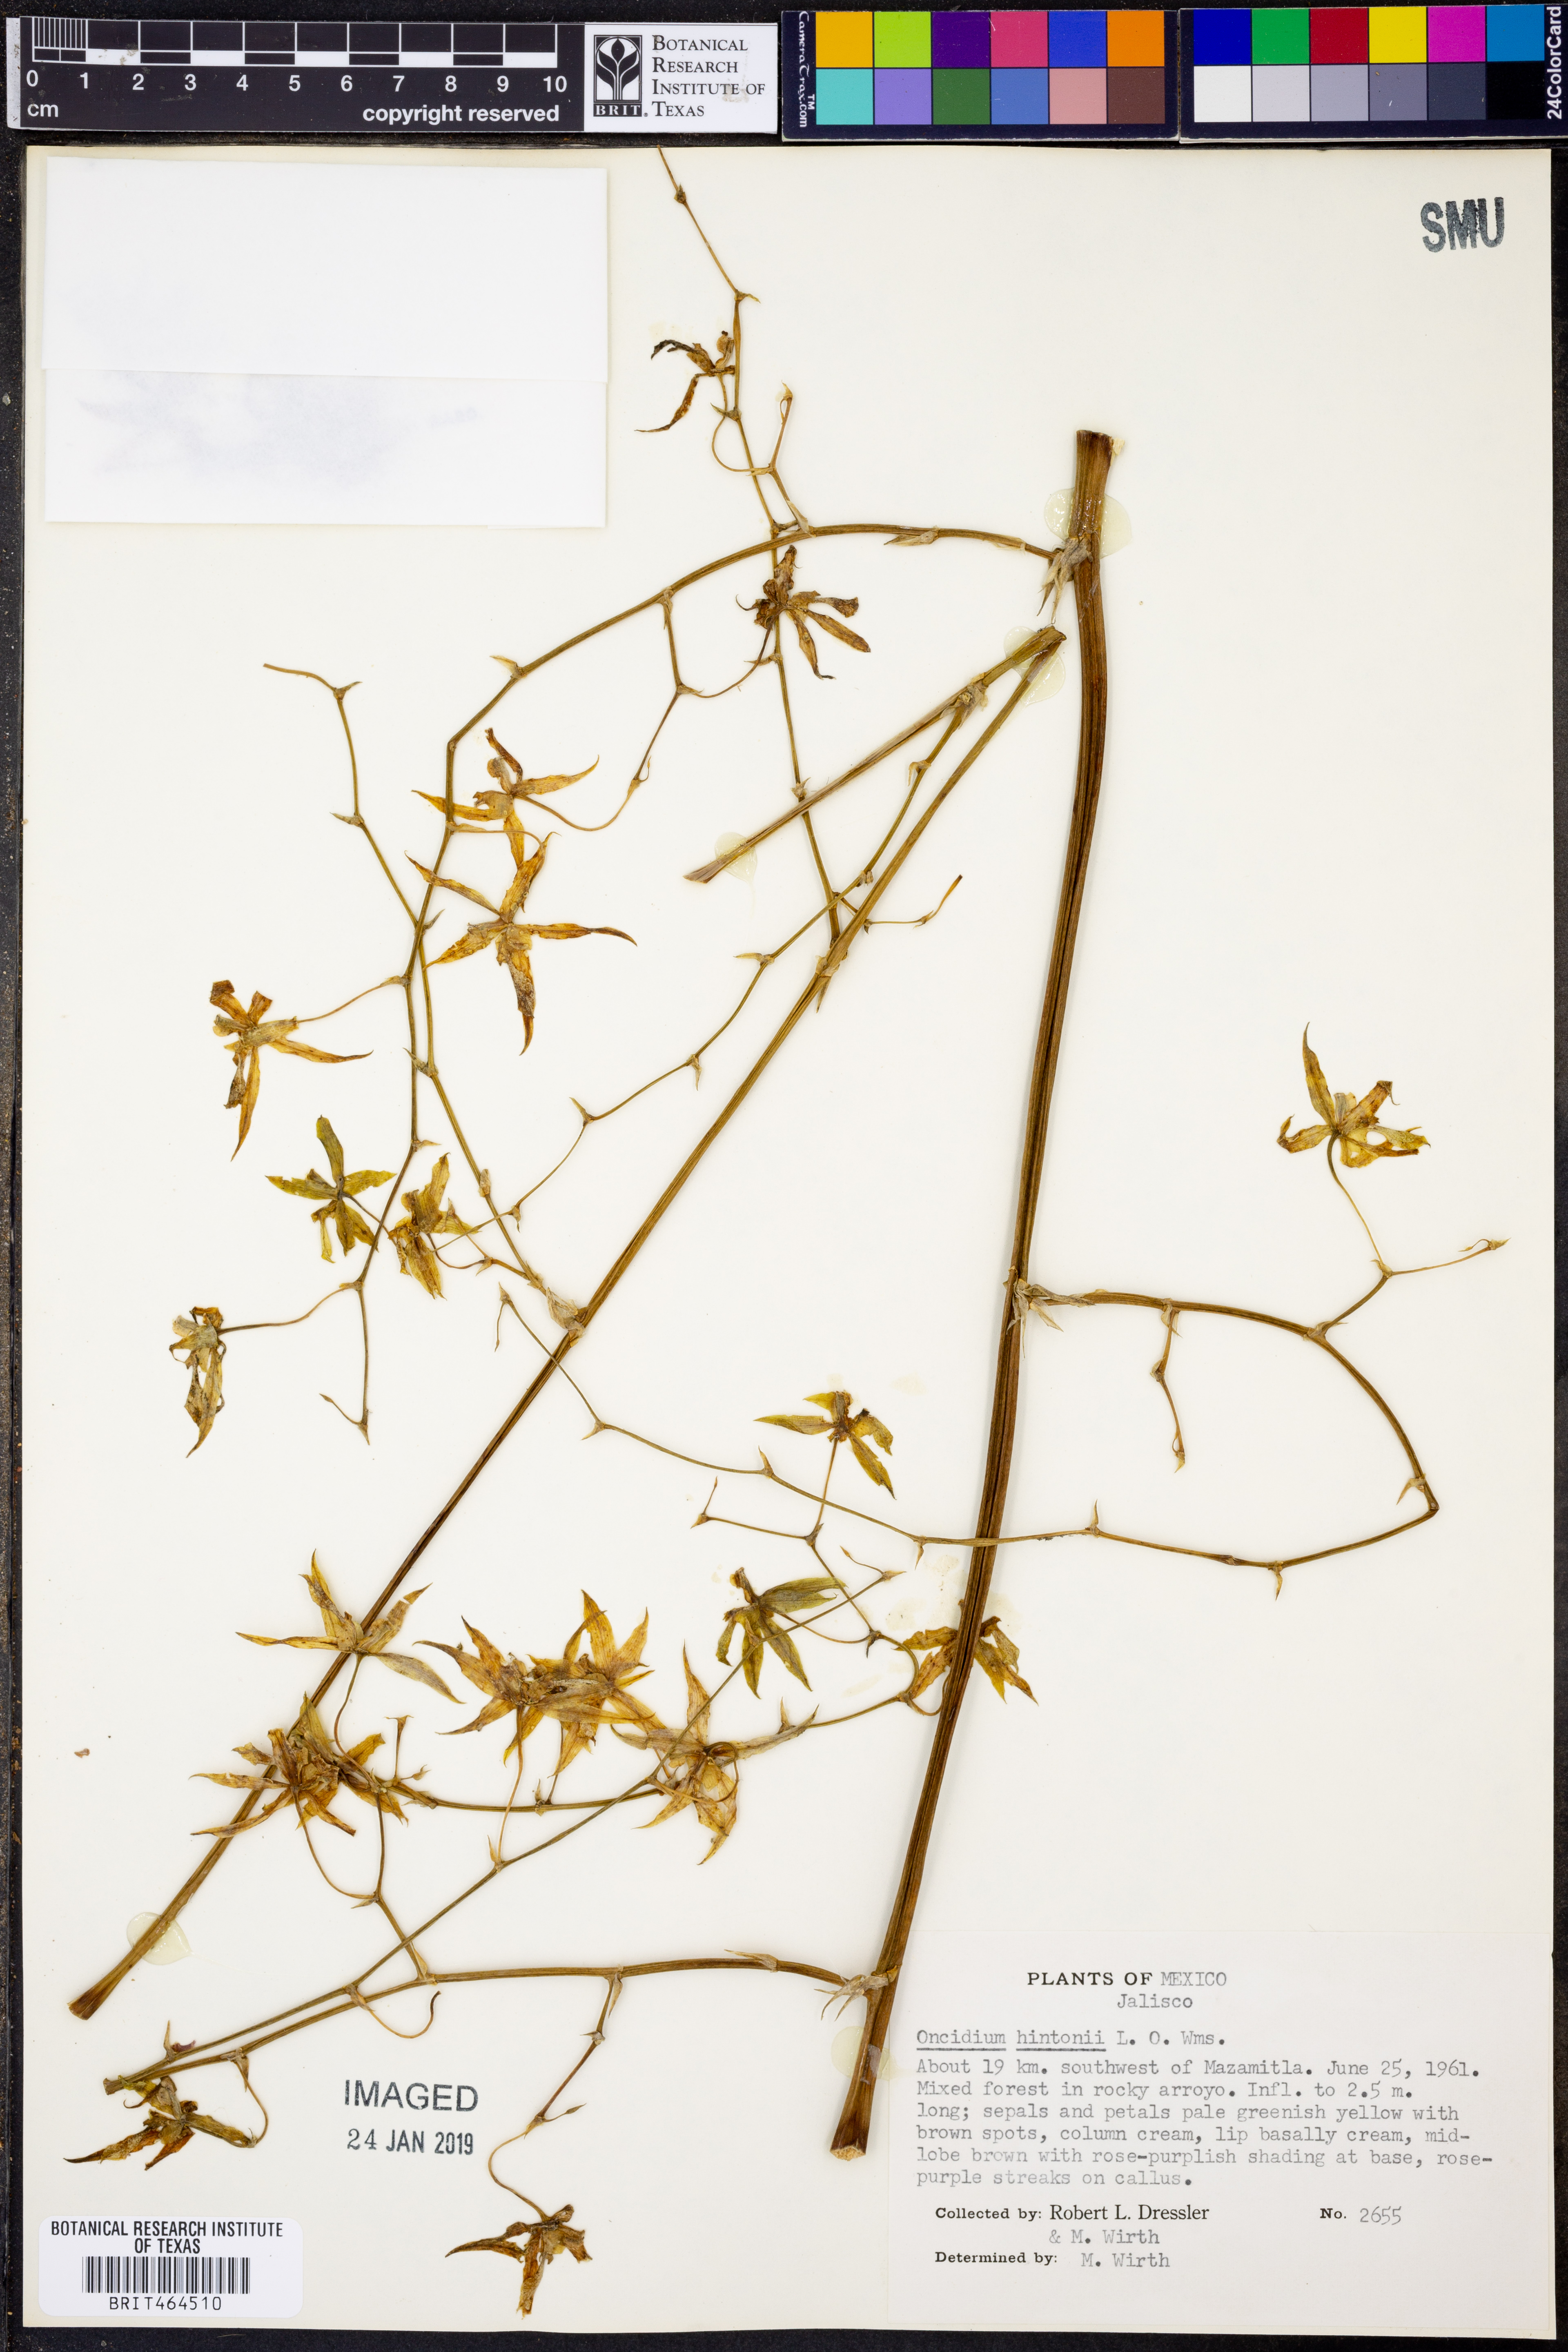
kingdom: Plantae
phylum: Tracheophyta
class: Liliopsida
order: Asparagales
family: Orchidaceae
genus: Oncidium
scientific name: Oncidium hintonii
